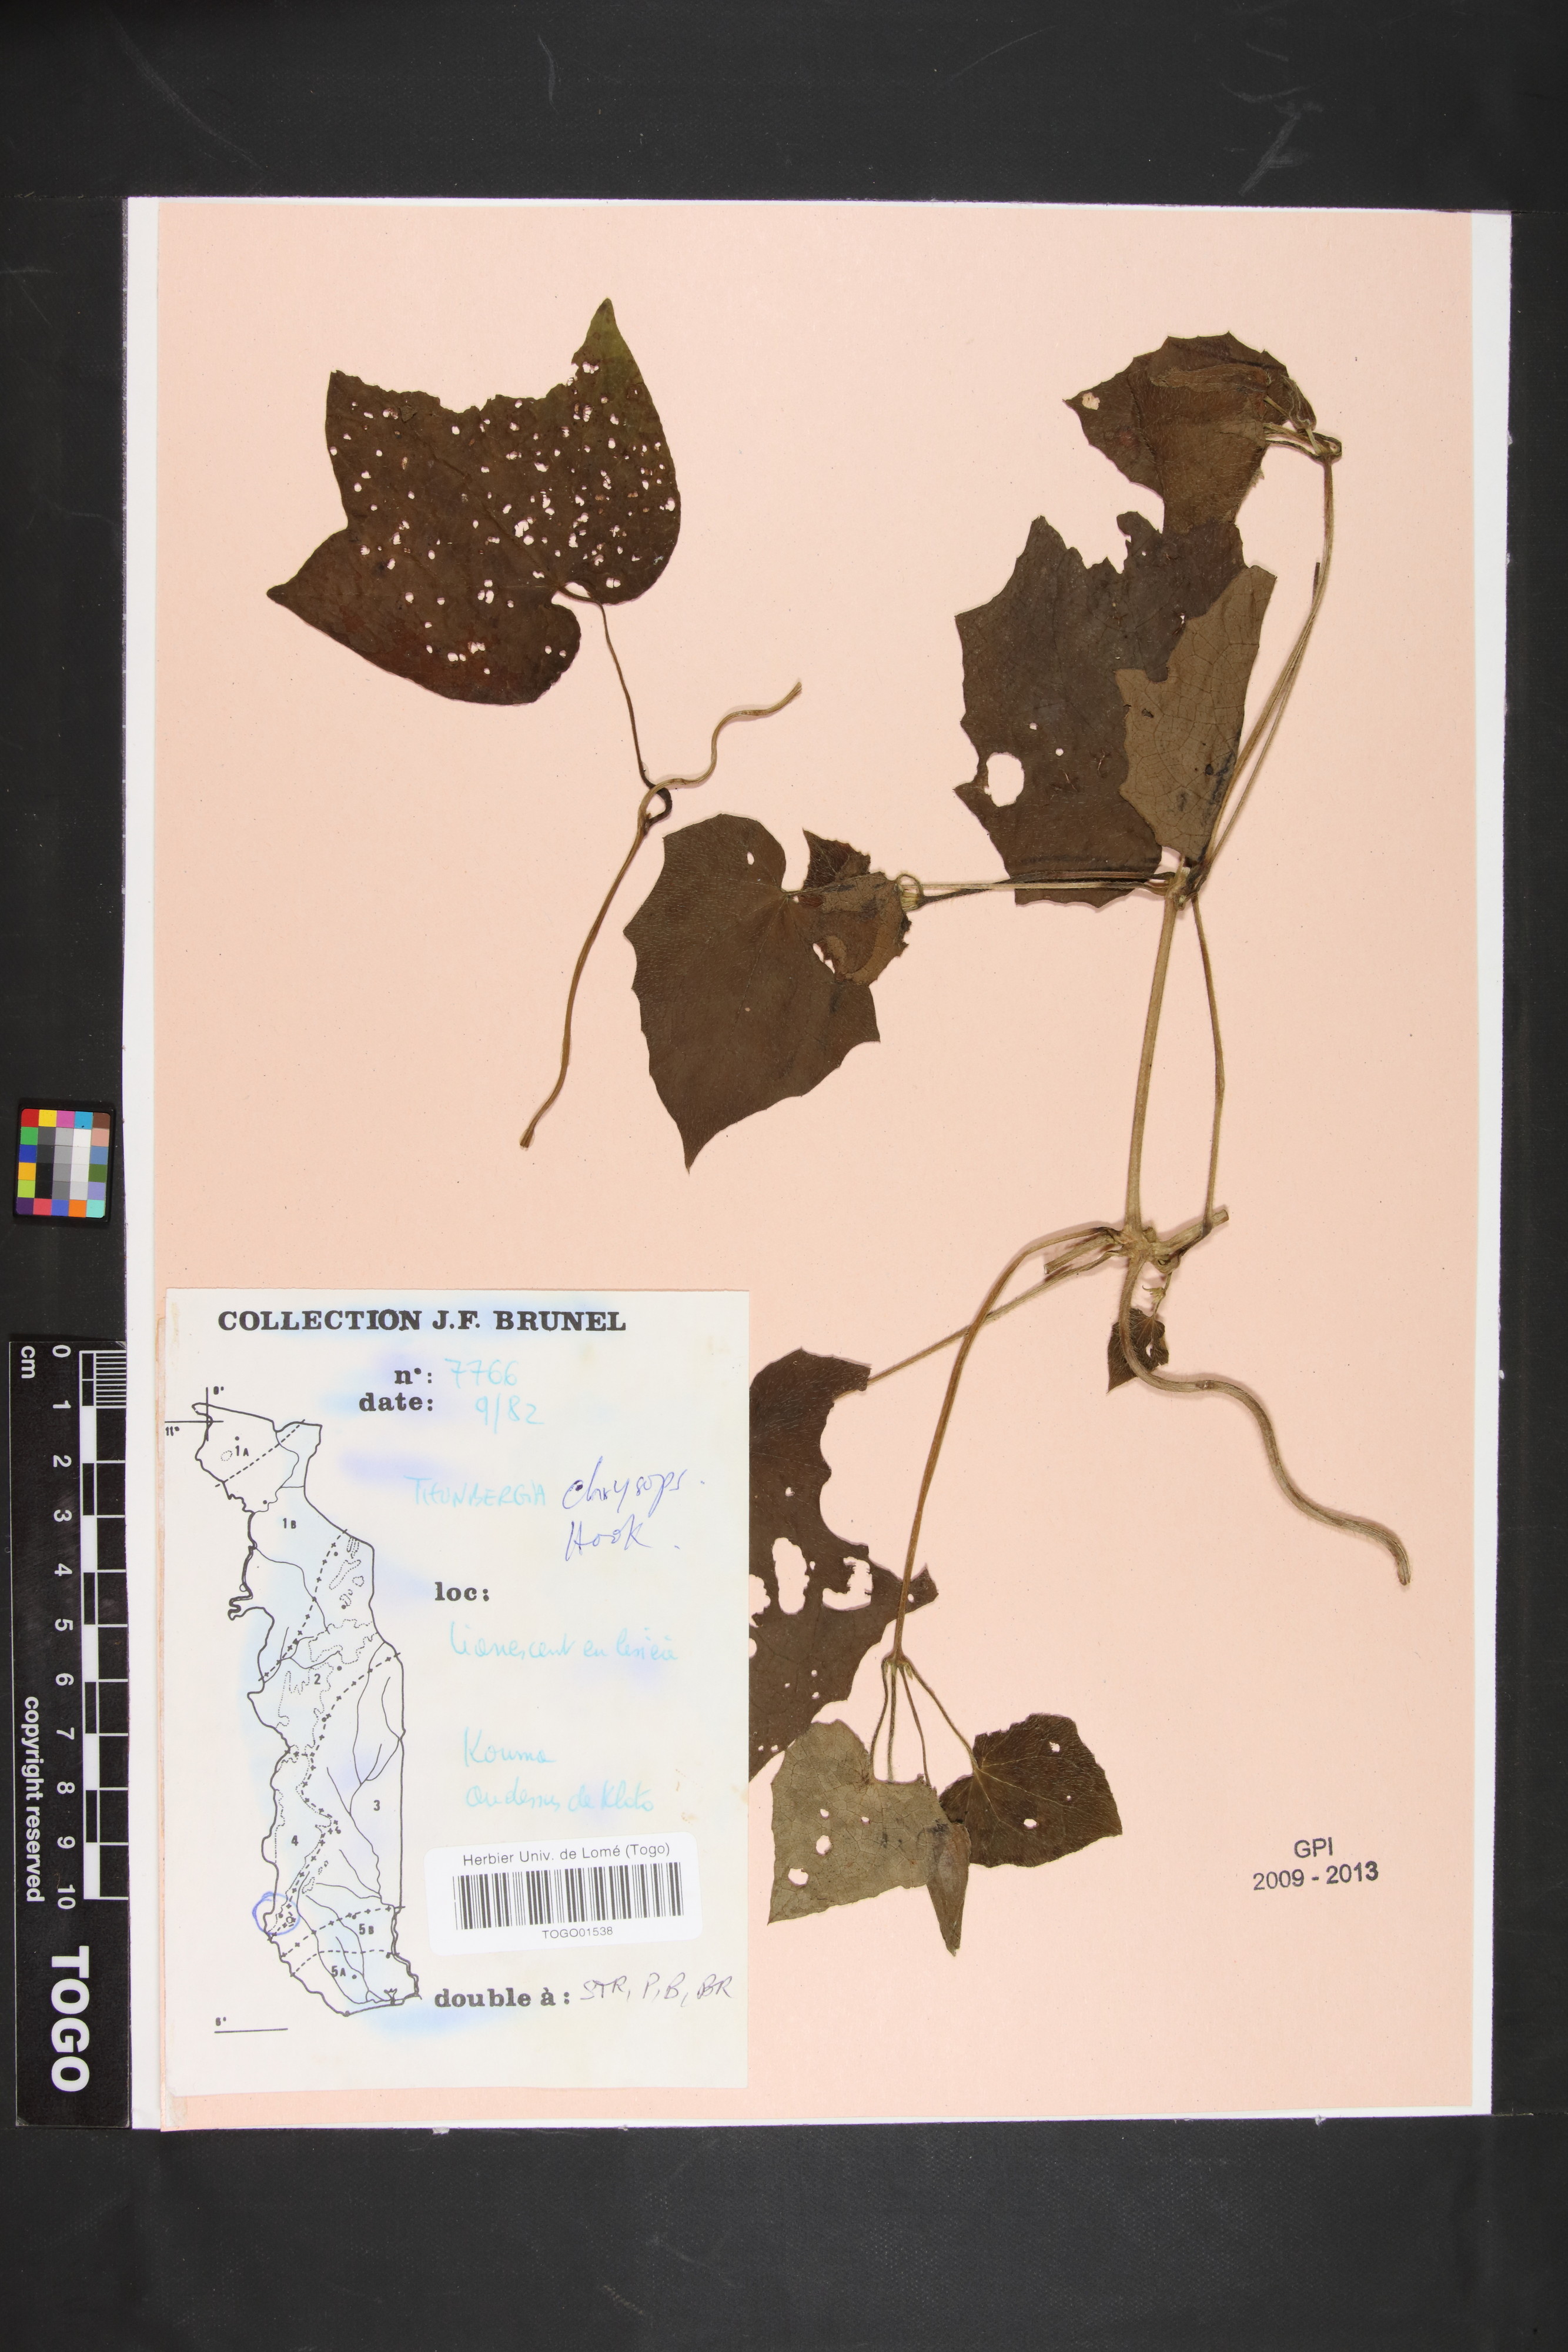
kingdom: Plantae
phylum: Tracheophyta
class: Magnoliopsida
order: Lamiales
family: Acanthaceae
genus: Thunbergia
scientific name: Thunbergia chrysops
